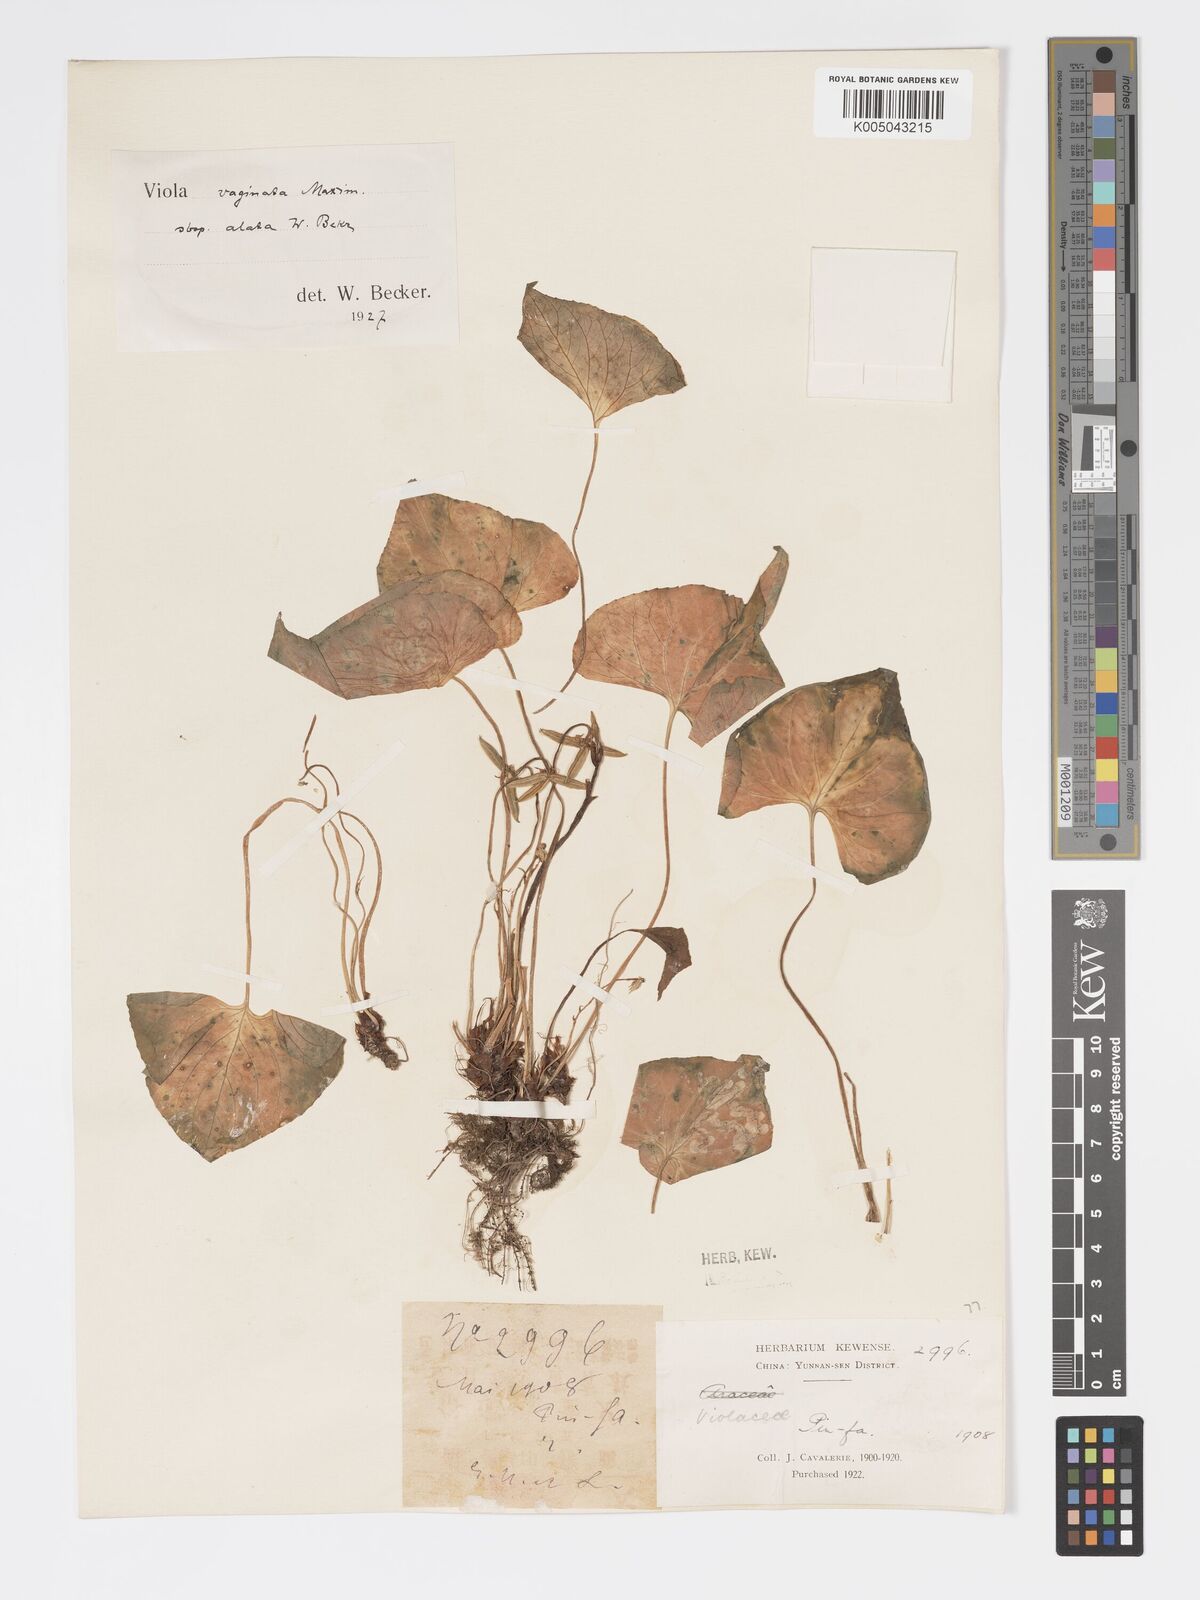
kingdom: Plantae
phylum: Tracheophyta
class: Magnoliopsida
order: Malpighiales
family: Violaceae
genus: Viola
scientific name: Viola vaginata
